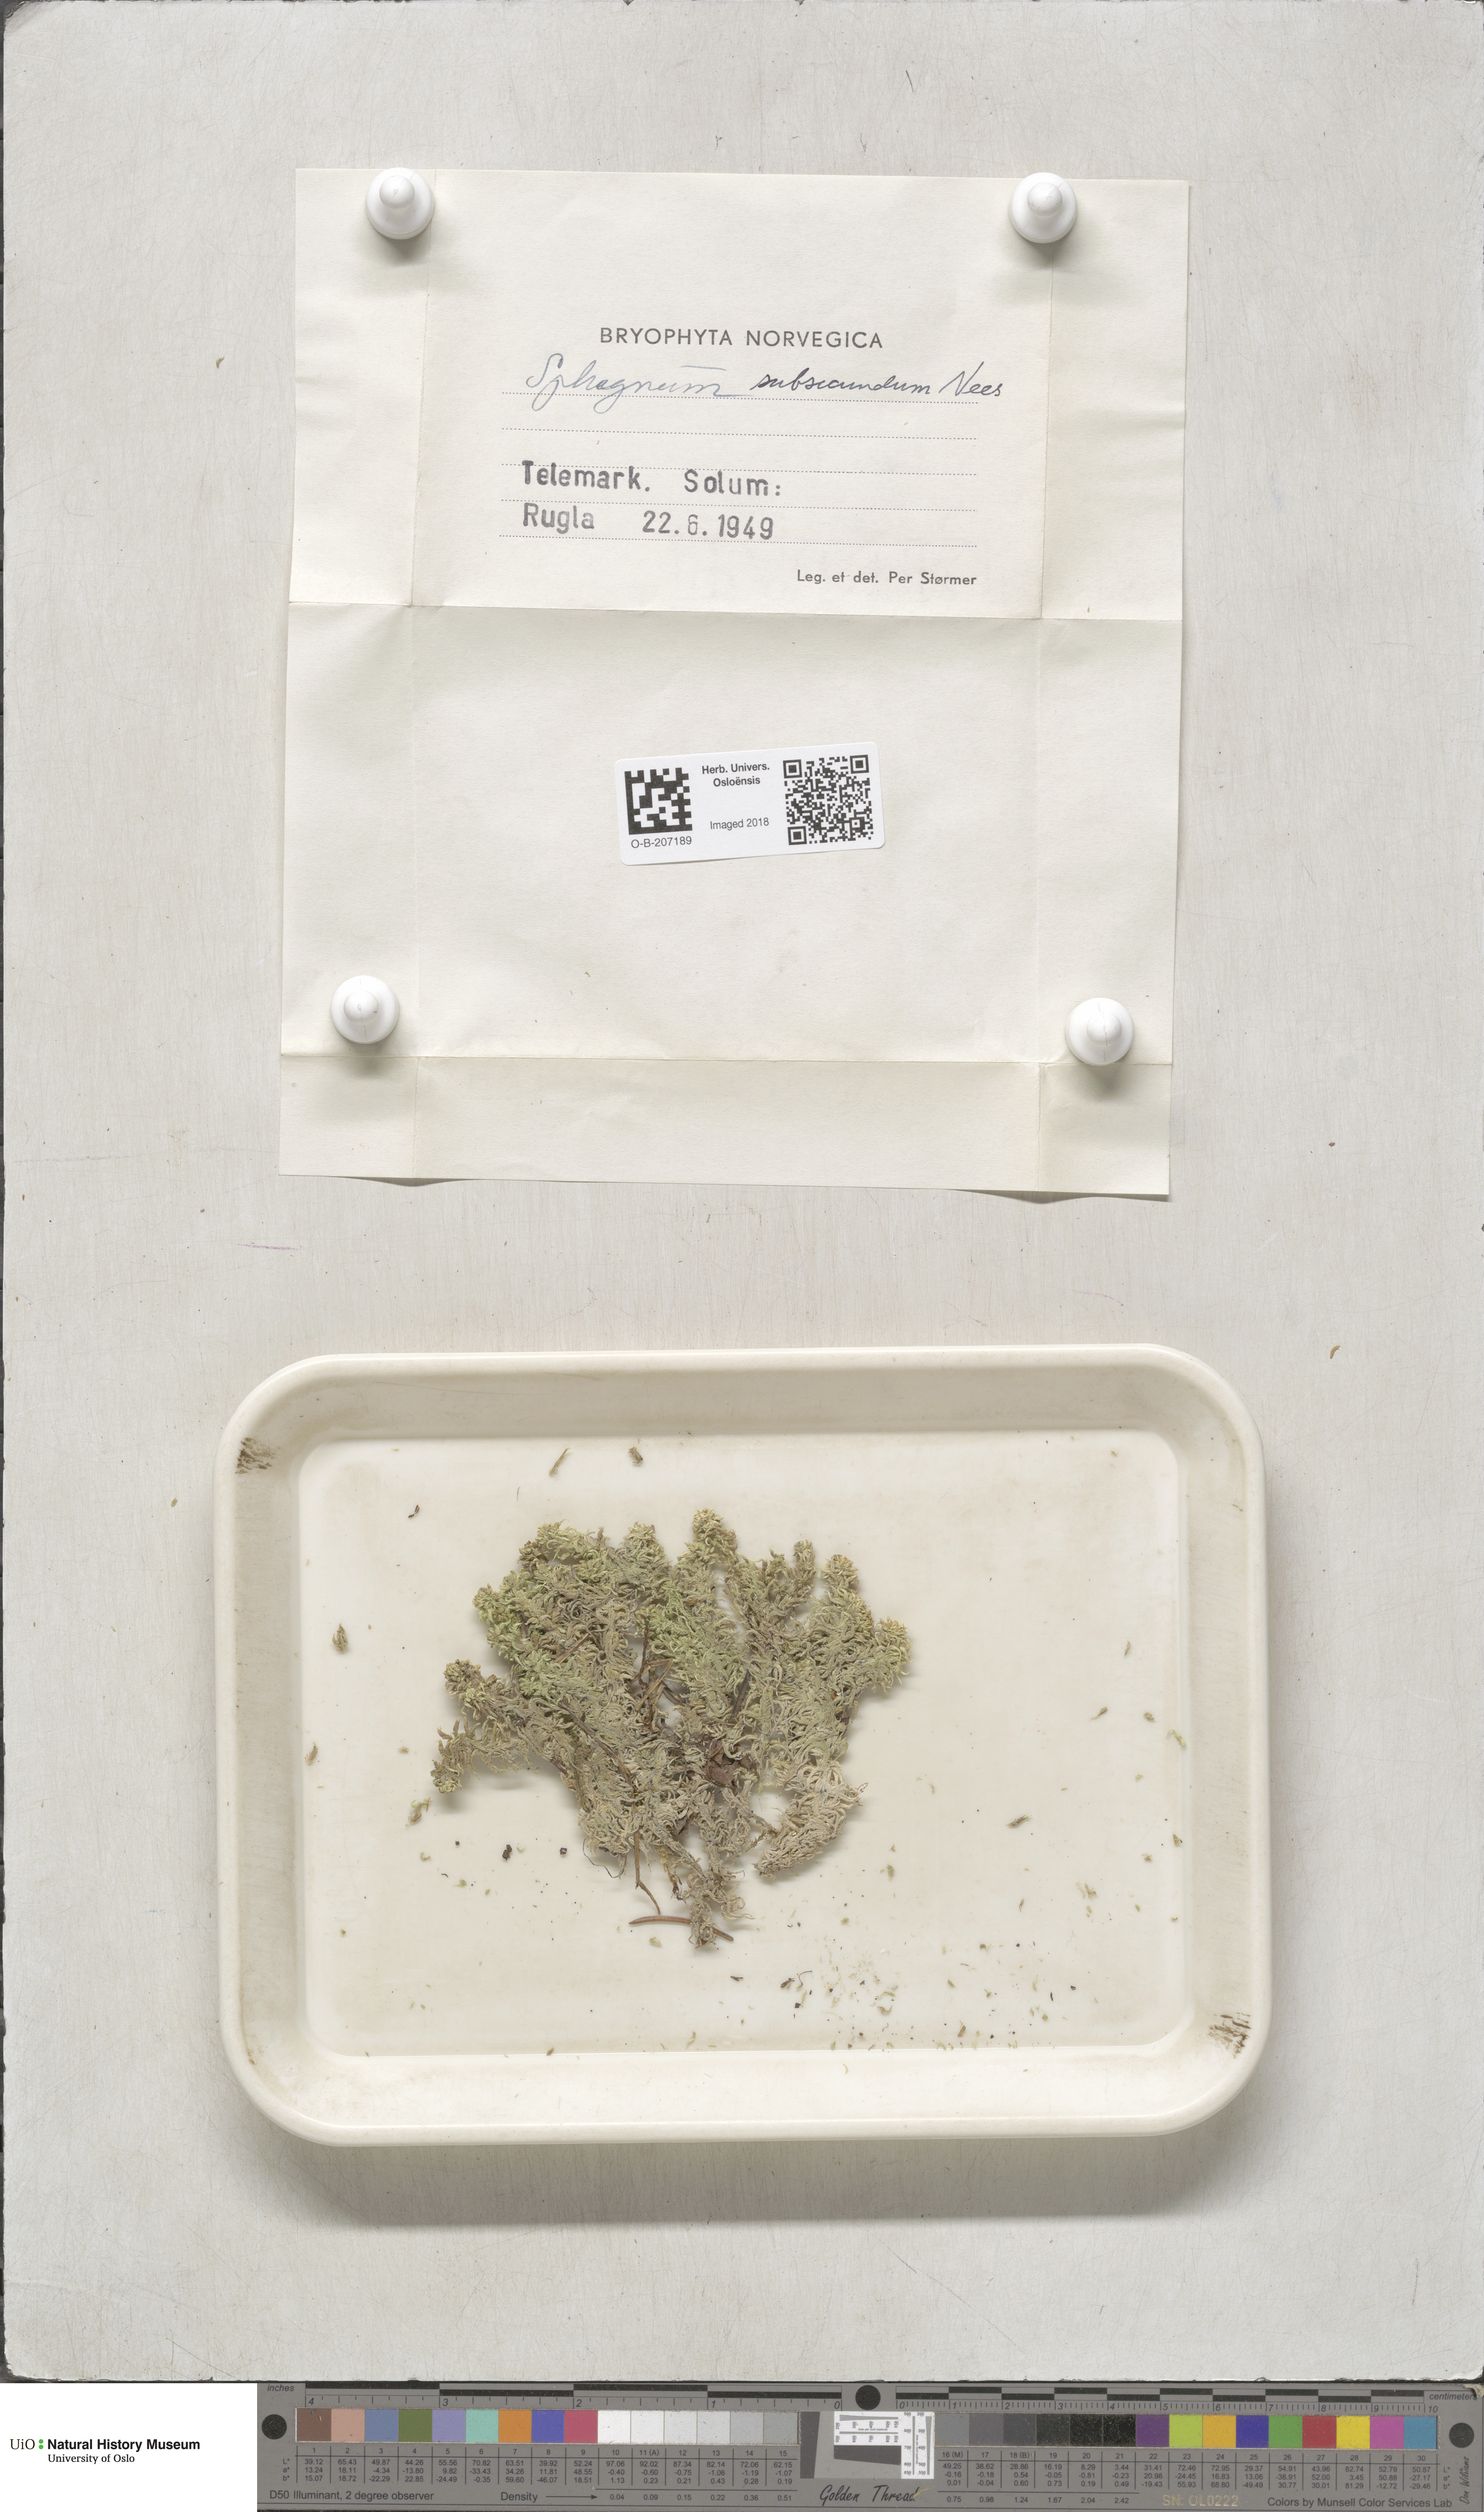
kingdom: Plantae
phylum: Bryophyta
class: Sphagnopsida
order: Sphagnales
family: Sphagnaceae
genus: Sphagnum
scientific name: Sphagnum subsecundum
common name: Orange peat moss
